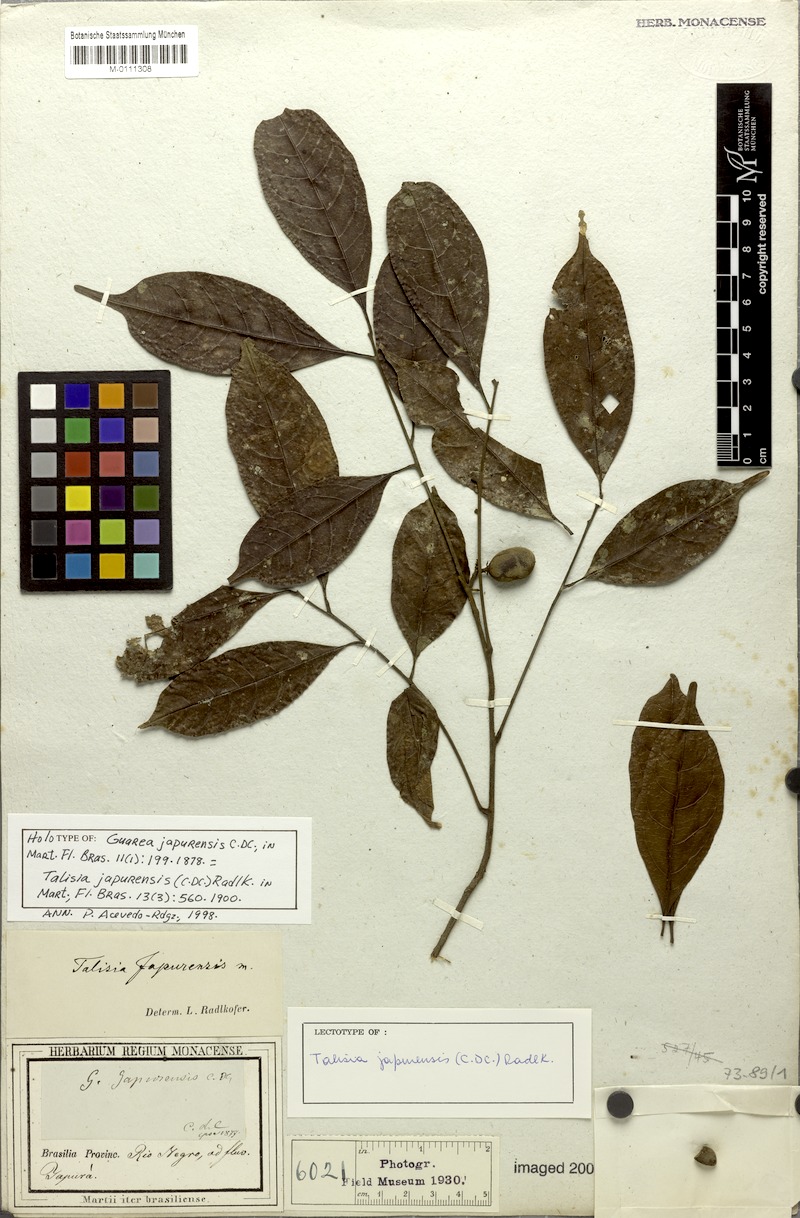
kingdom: Plantae
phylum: Tracheophyta
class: Magnoliopsida
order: Sapindales
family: Sapindaceae
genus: Talisia
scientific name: Talisia japurensis
